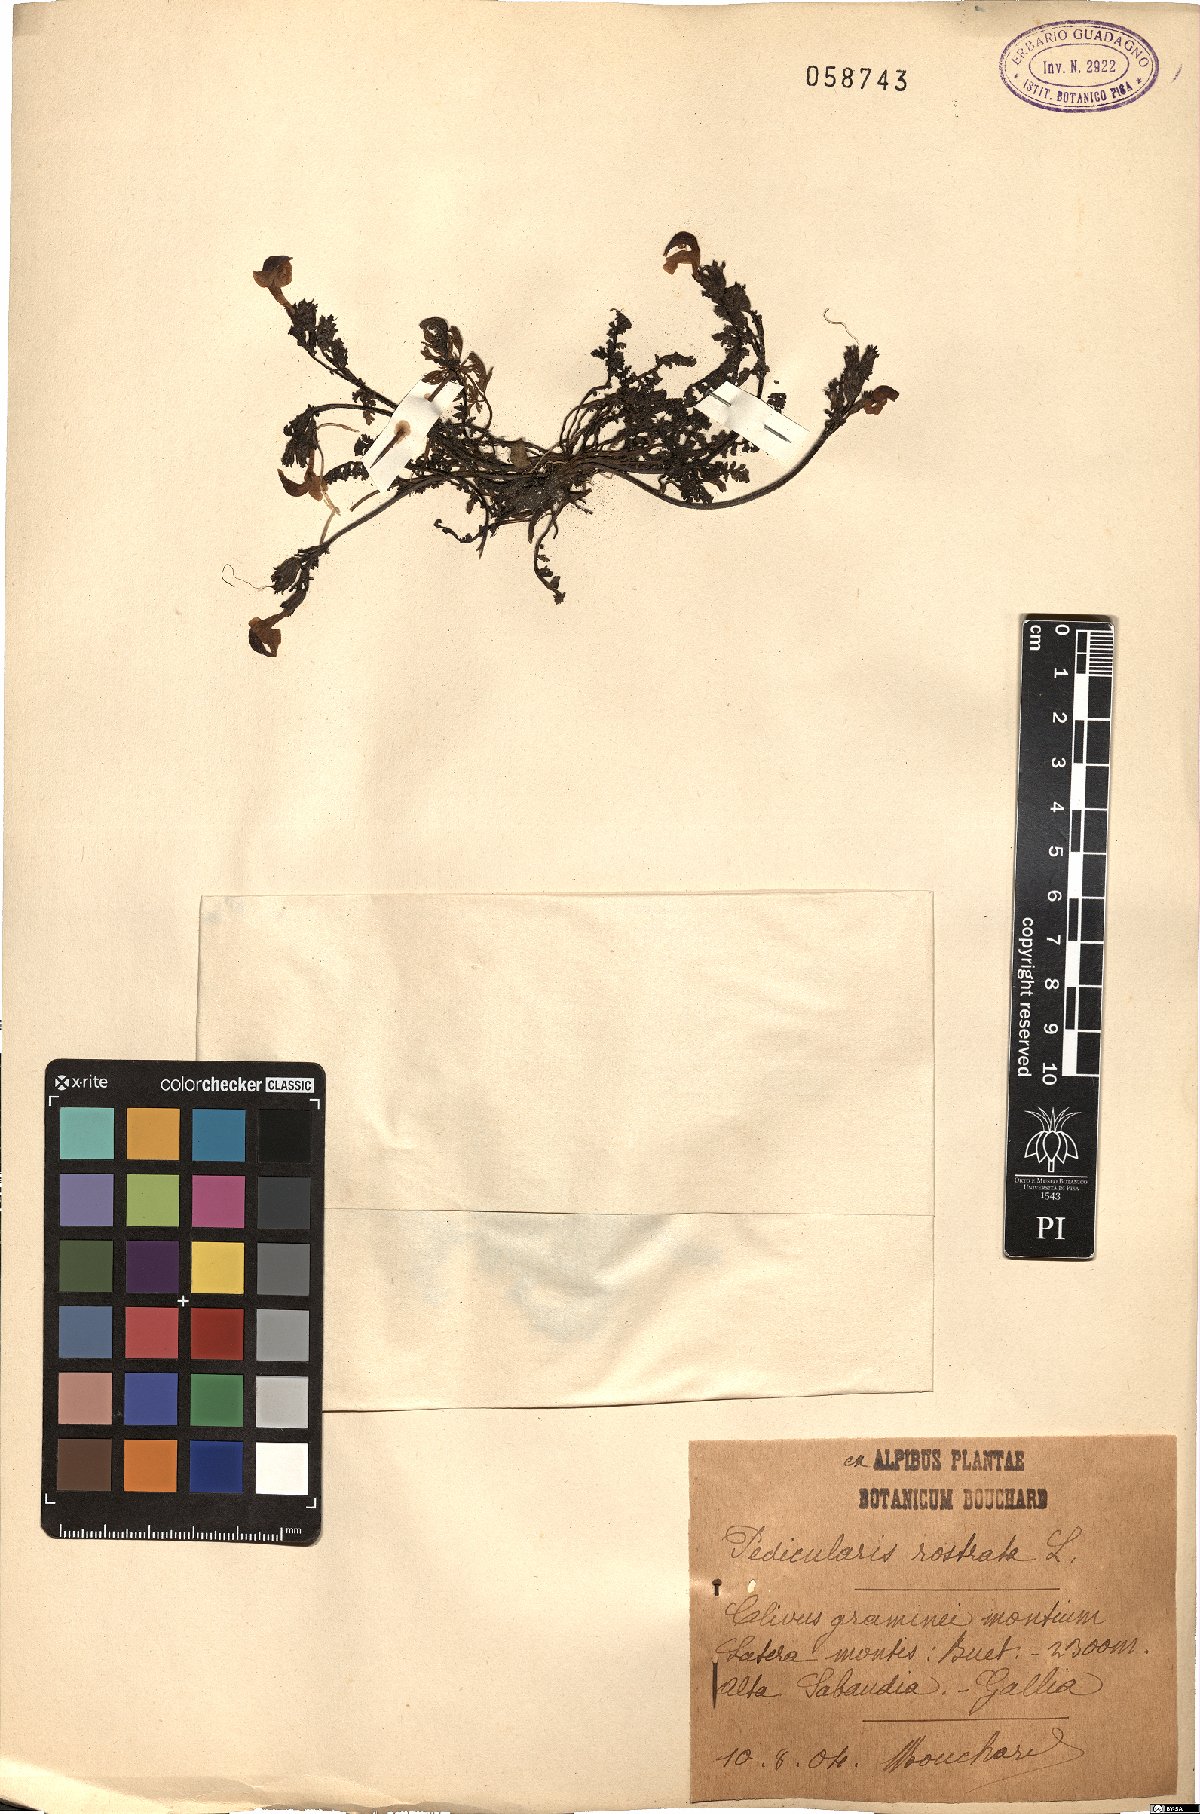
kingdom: Plantae
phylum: Tracheophyta
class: Magnoliopsida
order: Lamiales
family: Orobanchaceae
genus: Pedicularis
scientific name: Pedicularis
